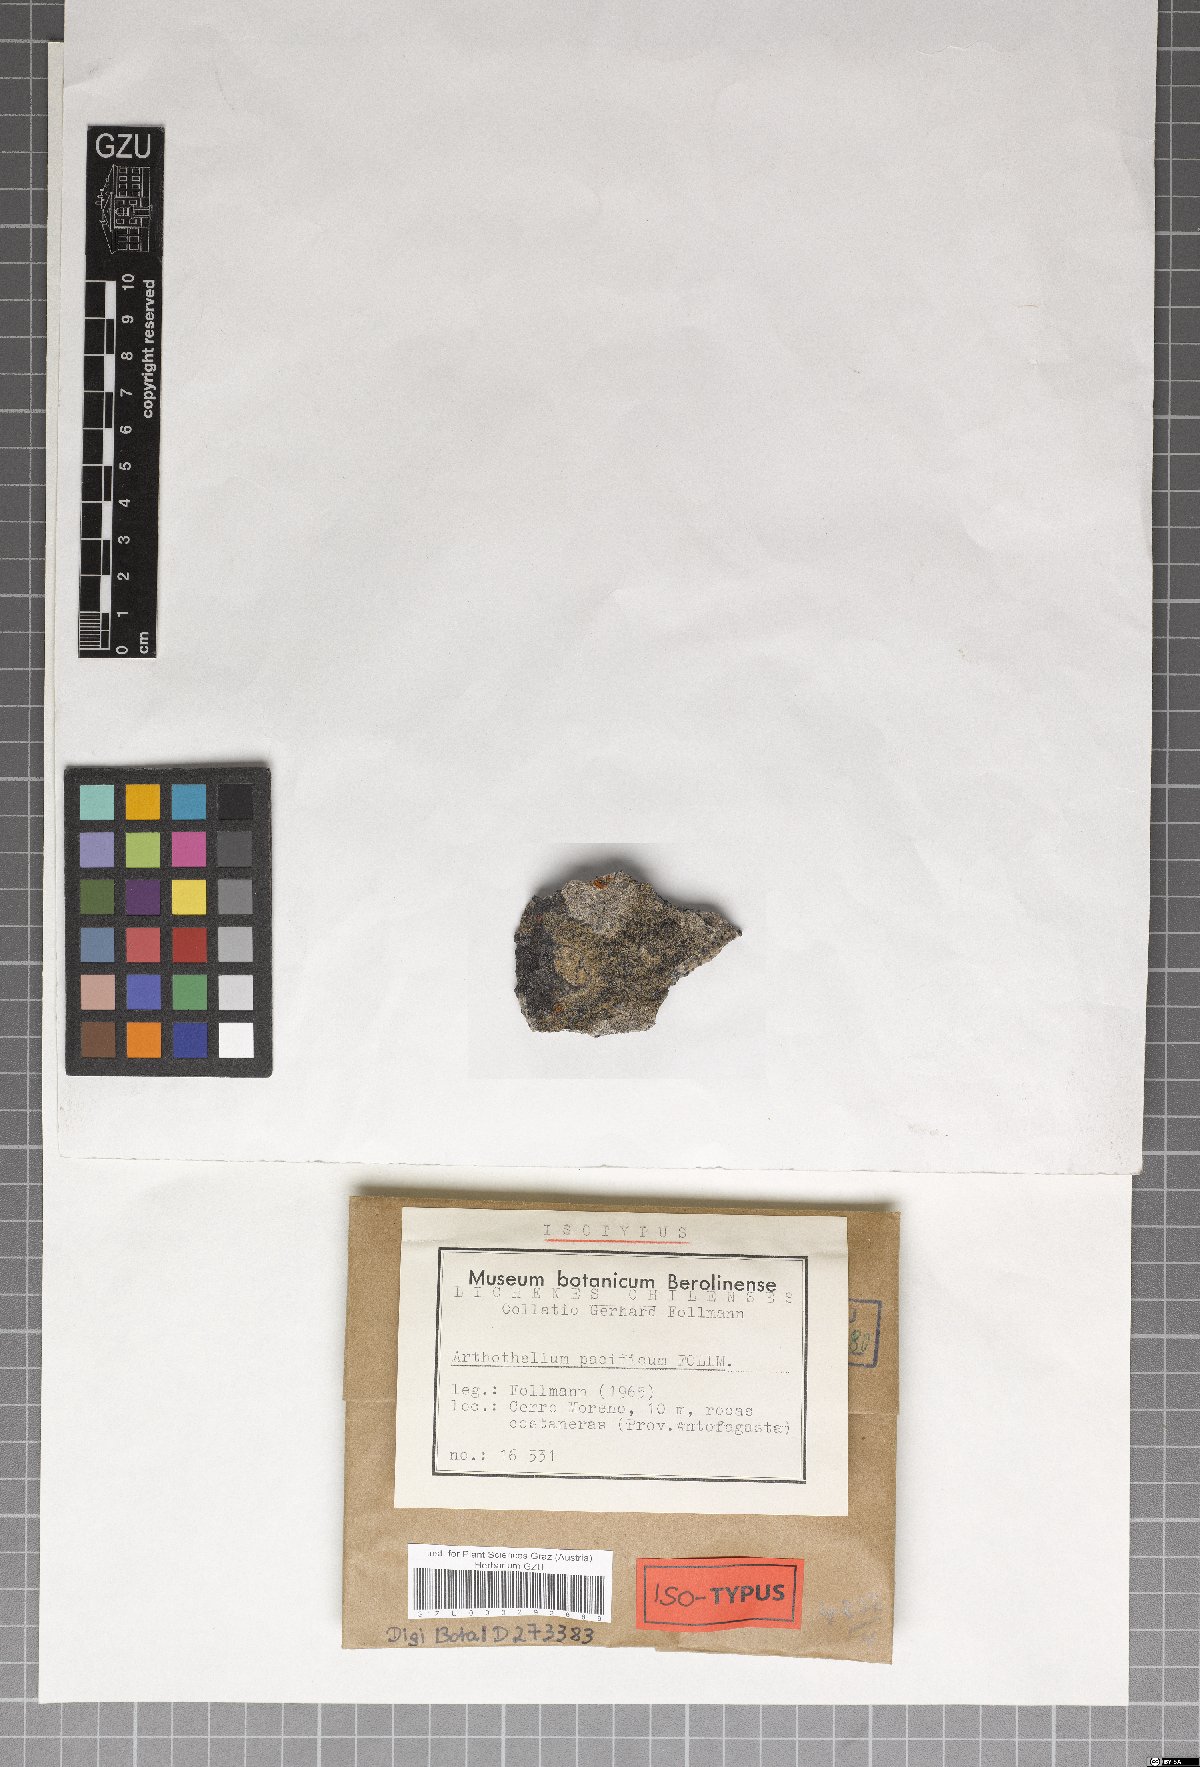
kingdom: Fungi
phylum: Ascomycota
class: Arthoniomycetes
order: Arthoniales
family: Arthoniaceae
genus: Arthothelium
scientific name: Arthothelium
